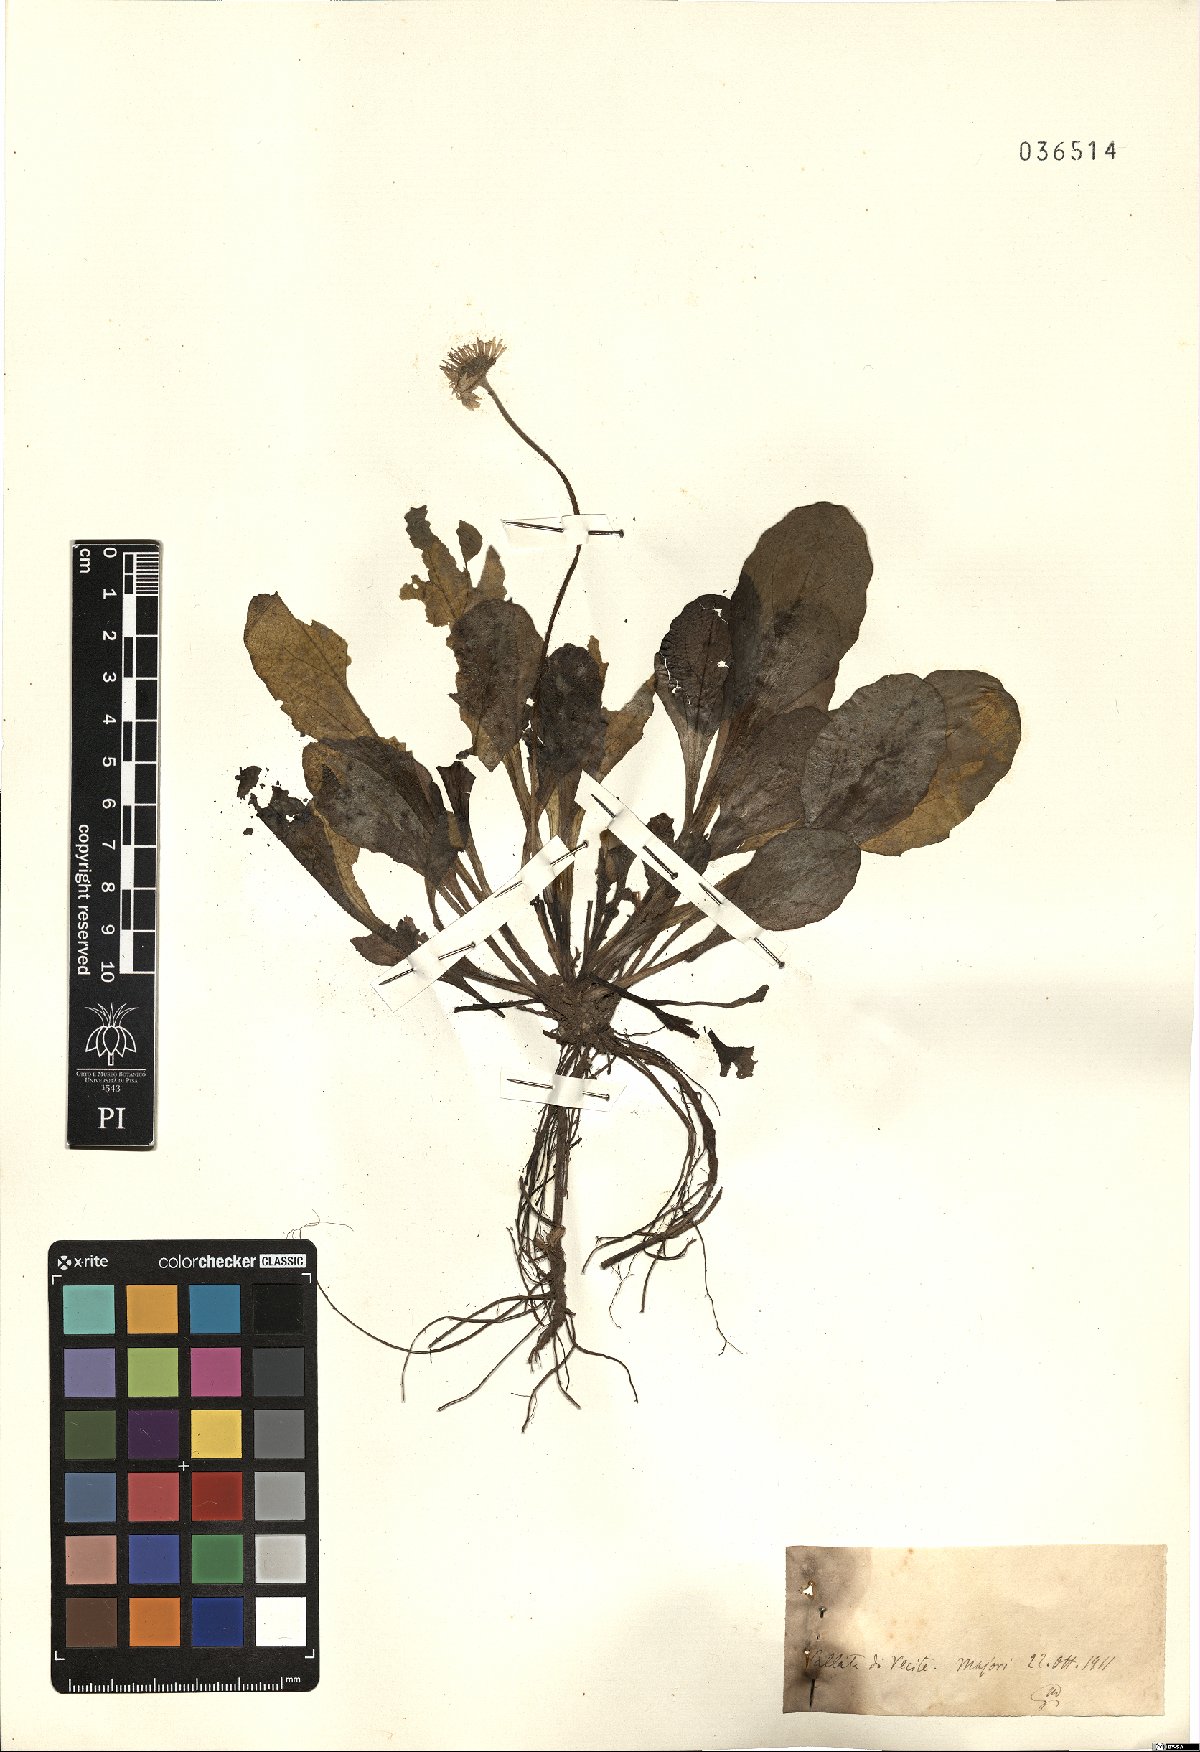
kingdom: Plantae
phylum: Tracheophyta
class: Magnoliopsida
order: Asterales
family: Asteraceae
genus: Bellis
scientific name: Bellis
